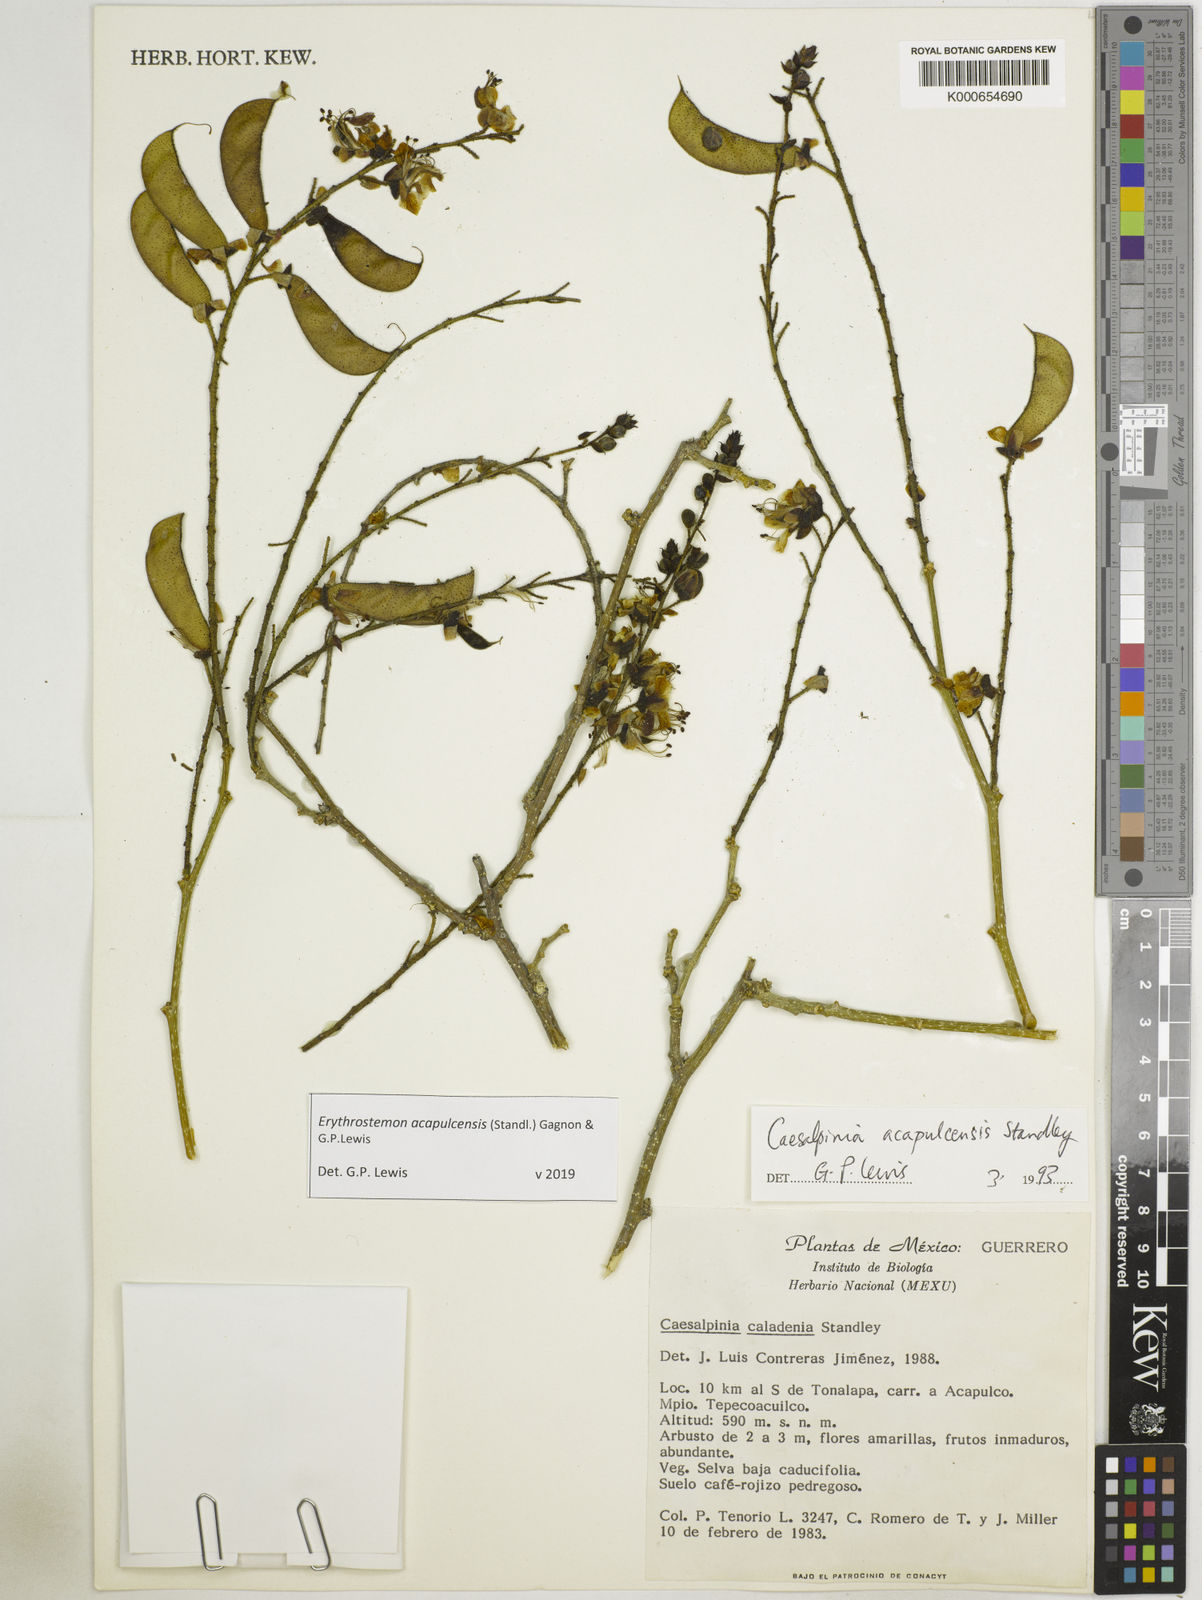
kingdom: Plantae
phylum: Tracheophyta
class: Magnoliopsida
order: Fabales
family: Fabaceae
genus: Erythrostemon
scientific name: Erythrostemon acapulcensis
